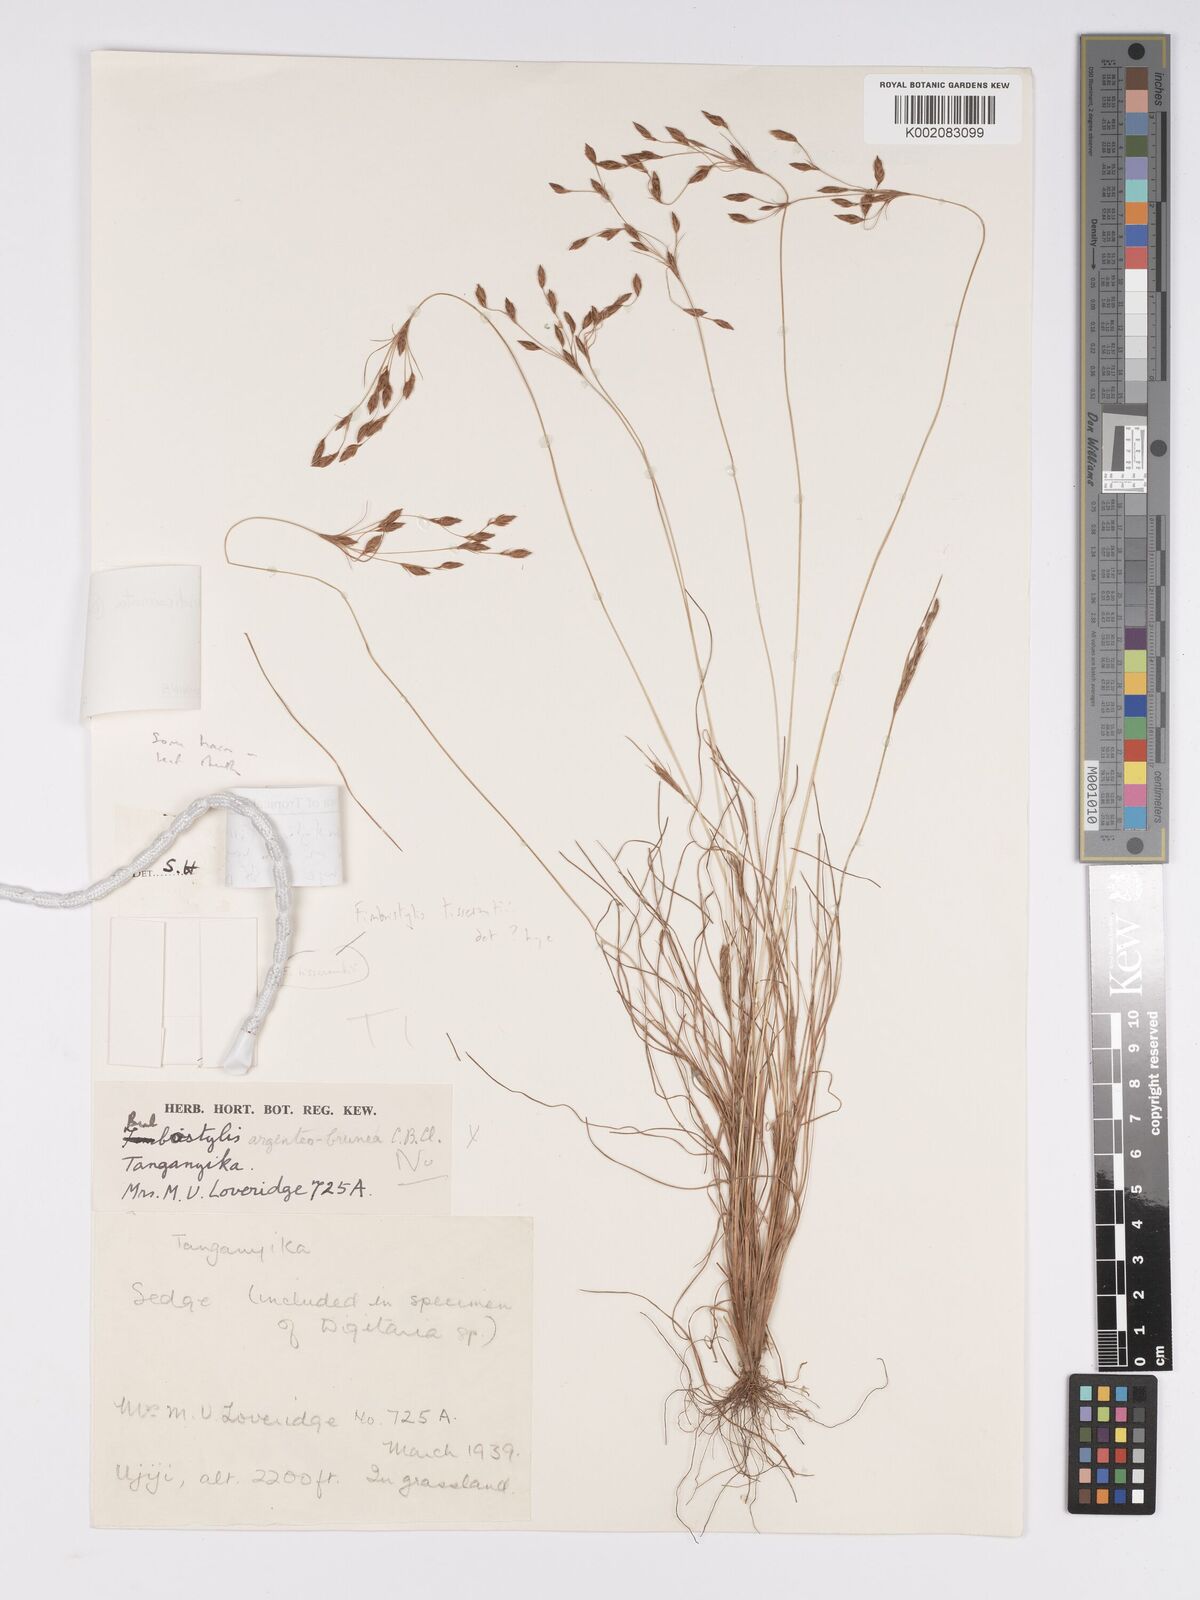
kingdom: Plantae
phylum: Tracheophyta
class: Liliopsida
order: Poales
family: Cyperaceae
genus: Bulbostylis
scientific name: Bulbostylis viridecarinata
